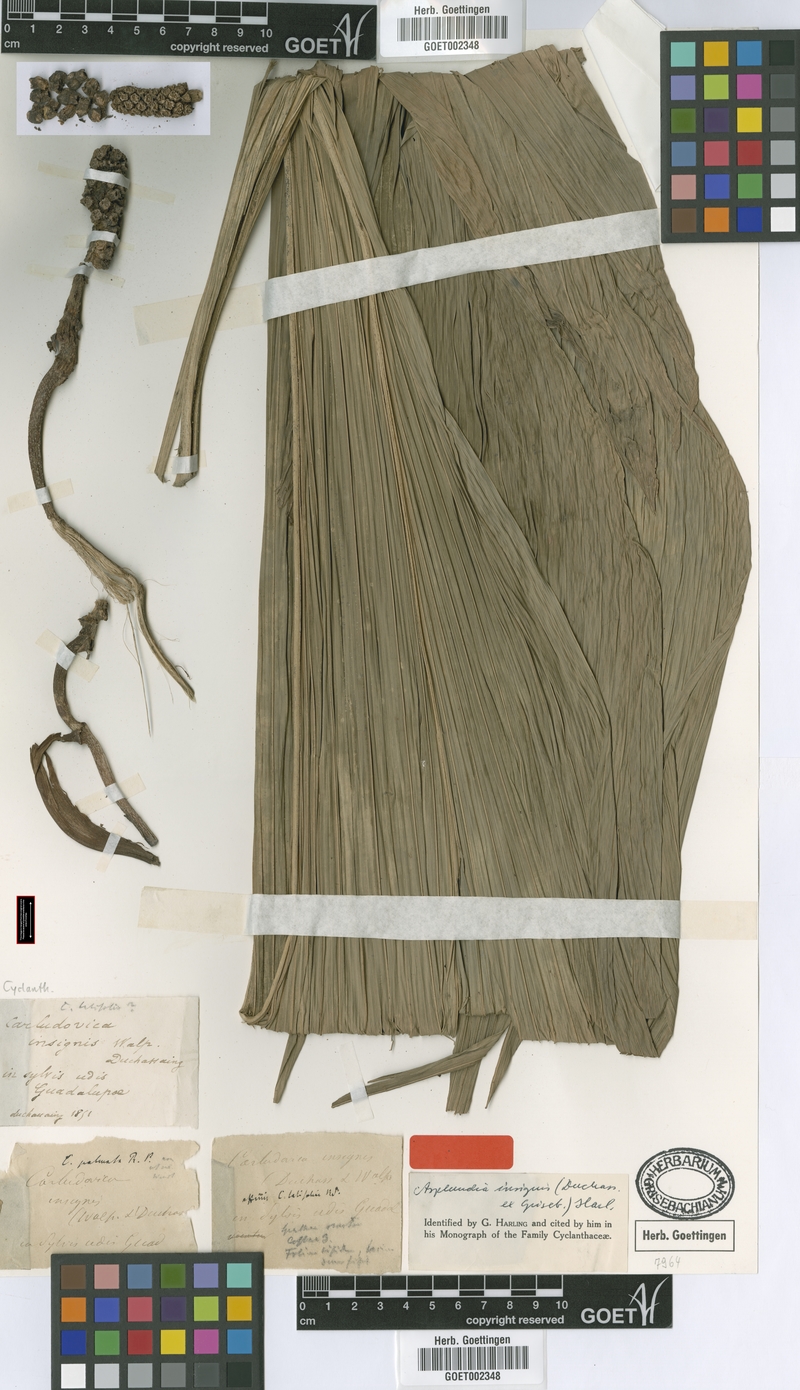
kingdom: Plantae
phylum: Tracheophyta
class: Liliopsida
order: Pandanales
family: Cyclanthaceae
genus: Asplundia
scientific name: Asplundia insignis
